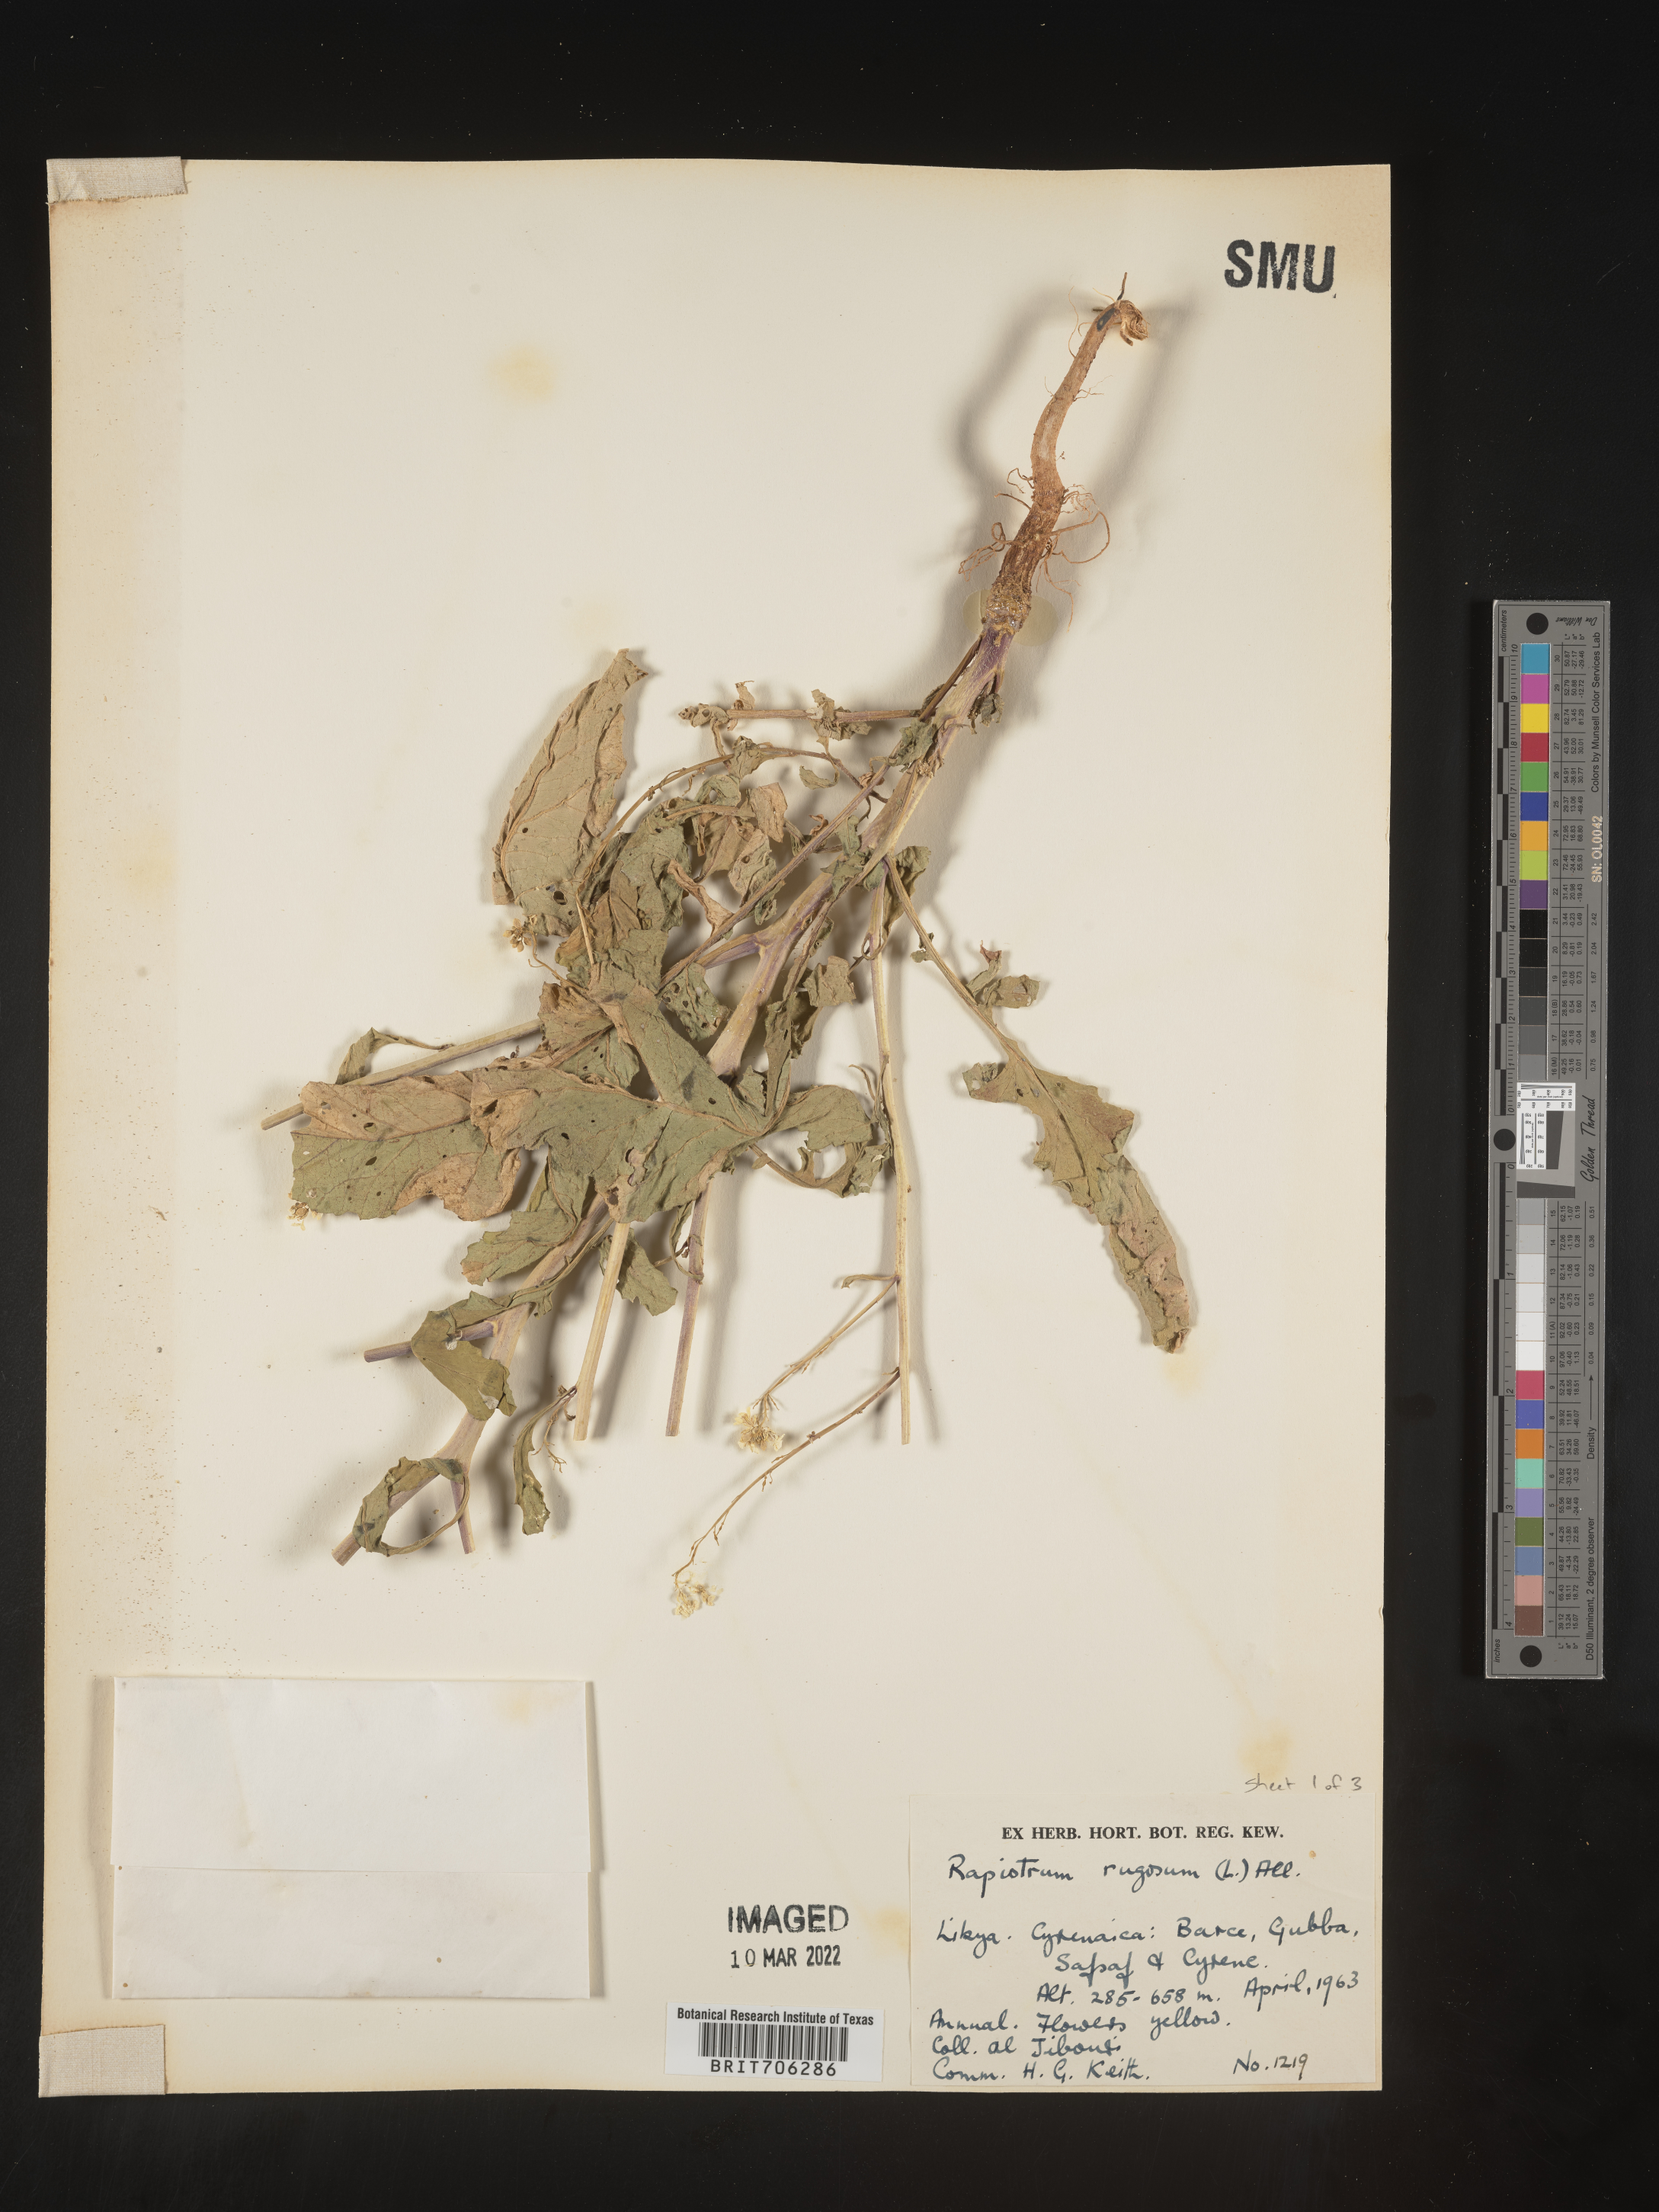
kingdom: Plantae
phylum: Tracheophyta
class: Magnoliopsida
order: Brassicales
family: Brassicaceae
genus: Rapistrum
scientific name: Rapistrum
